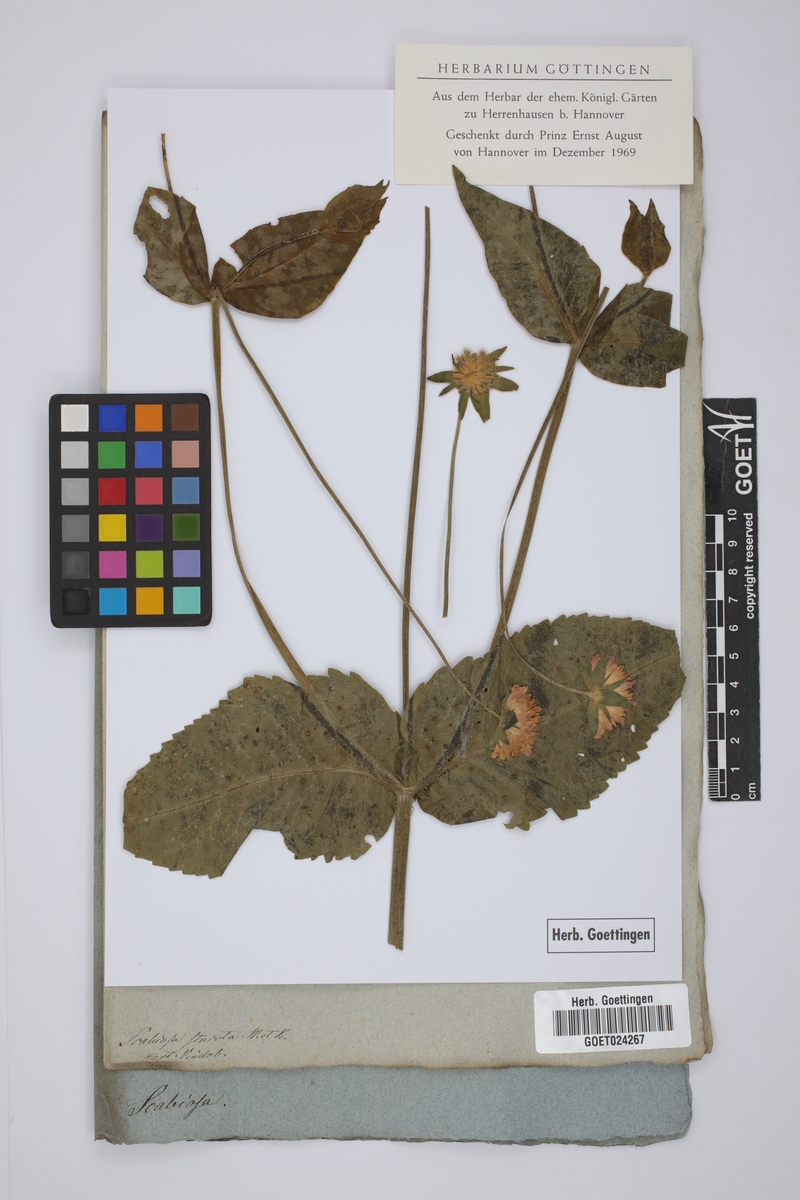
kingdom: Plantae
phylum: Tracheophyta
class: Magnoliopsida
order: Dipsacales
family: Caprifoliaceae
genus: Scabiosa
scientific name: Scabiosa lucida
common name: Shining scabious
